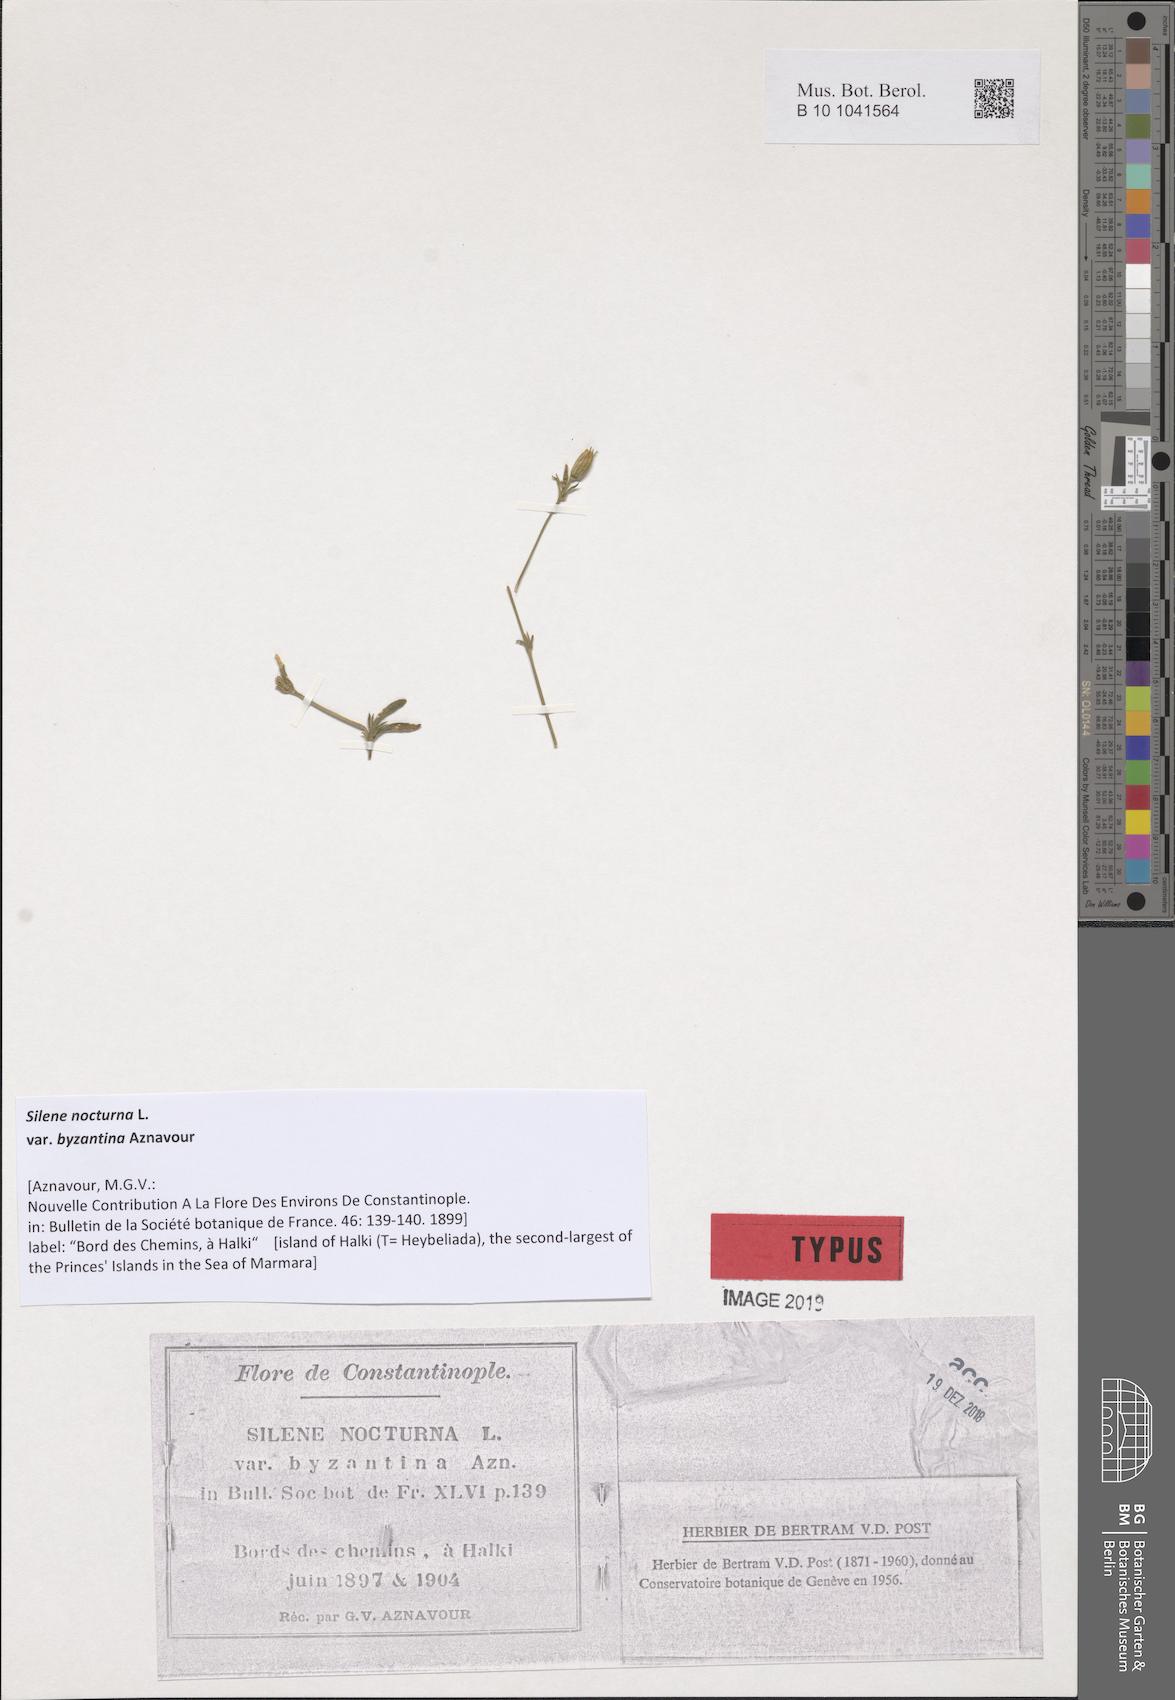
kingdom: Plantae
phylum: Tracheophyta
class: Magnoliopsida
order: Caryophyllales
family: Caryophyllaceae
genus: Silene
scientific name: Silene nocturna
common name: Mediterranean catchfly
